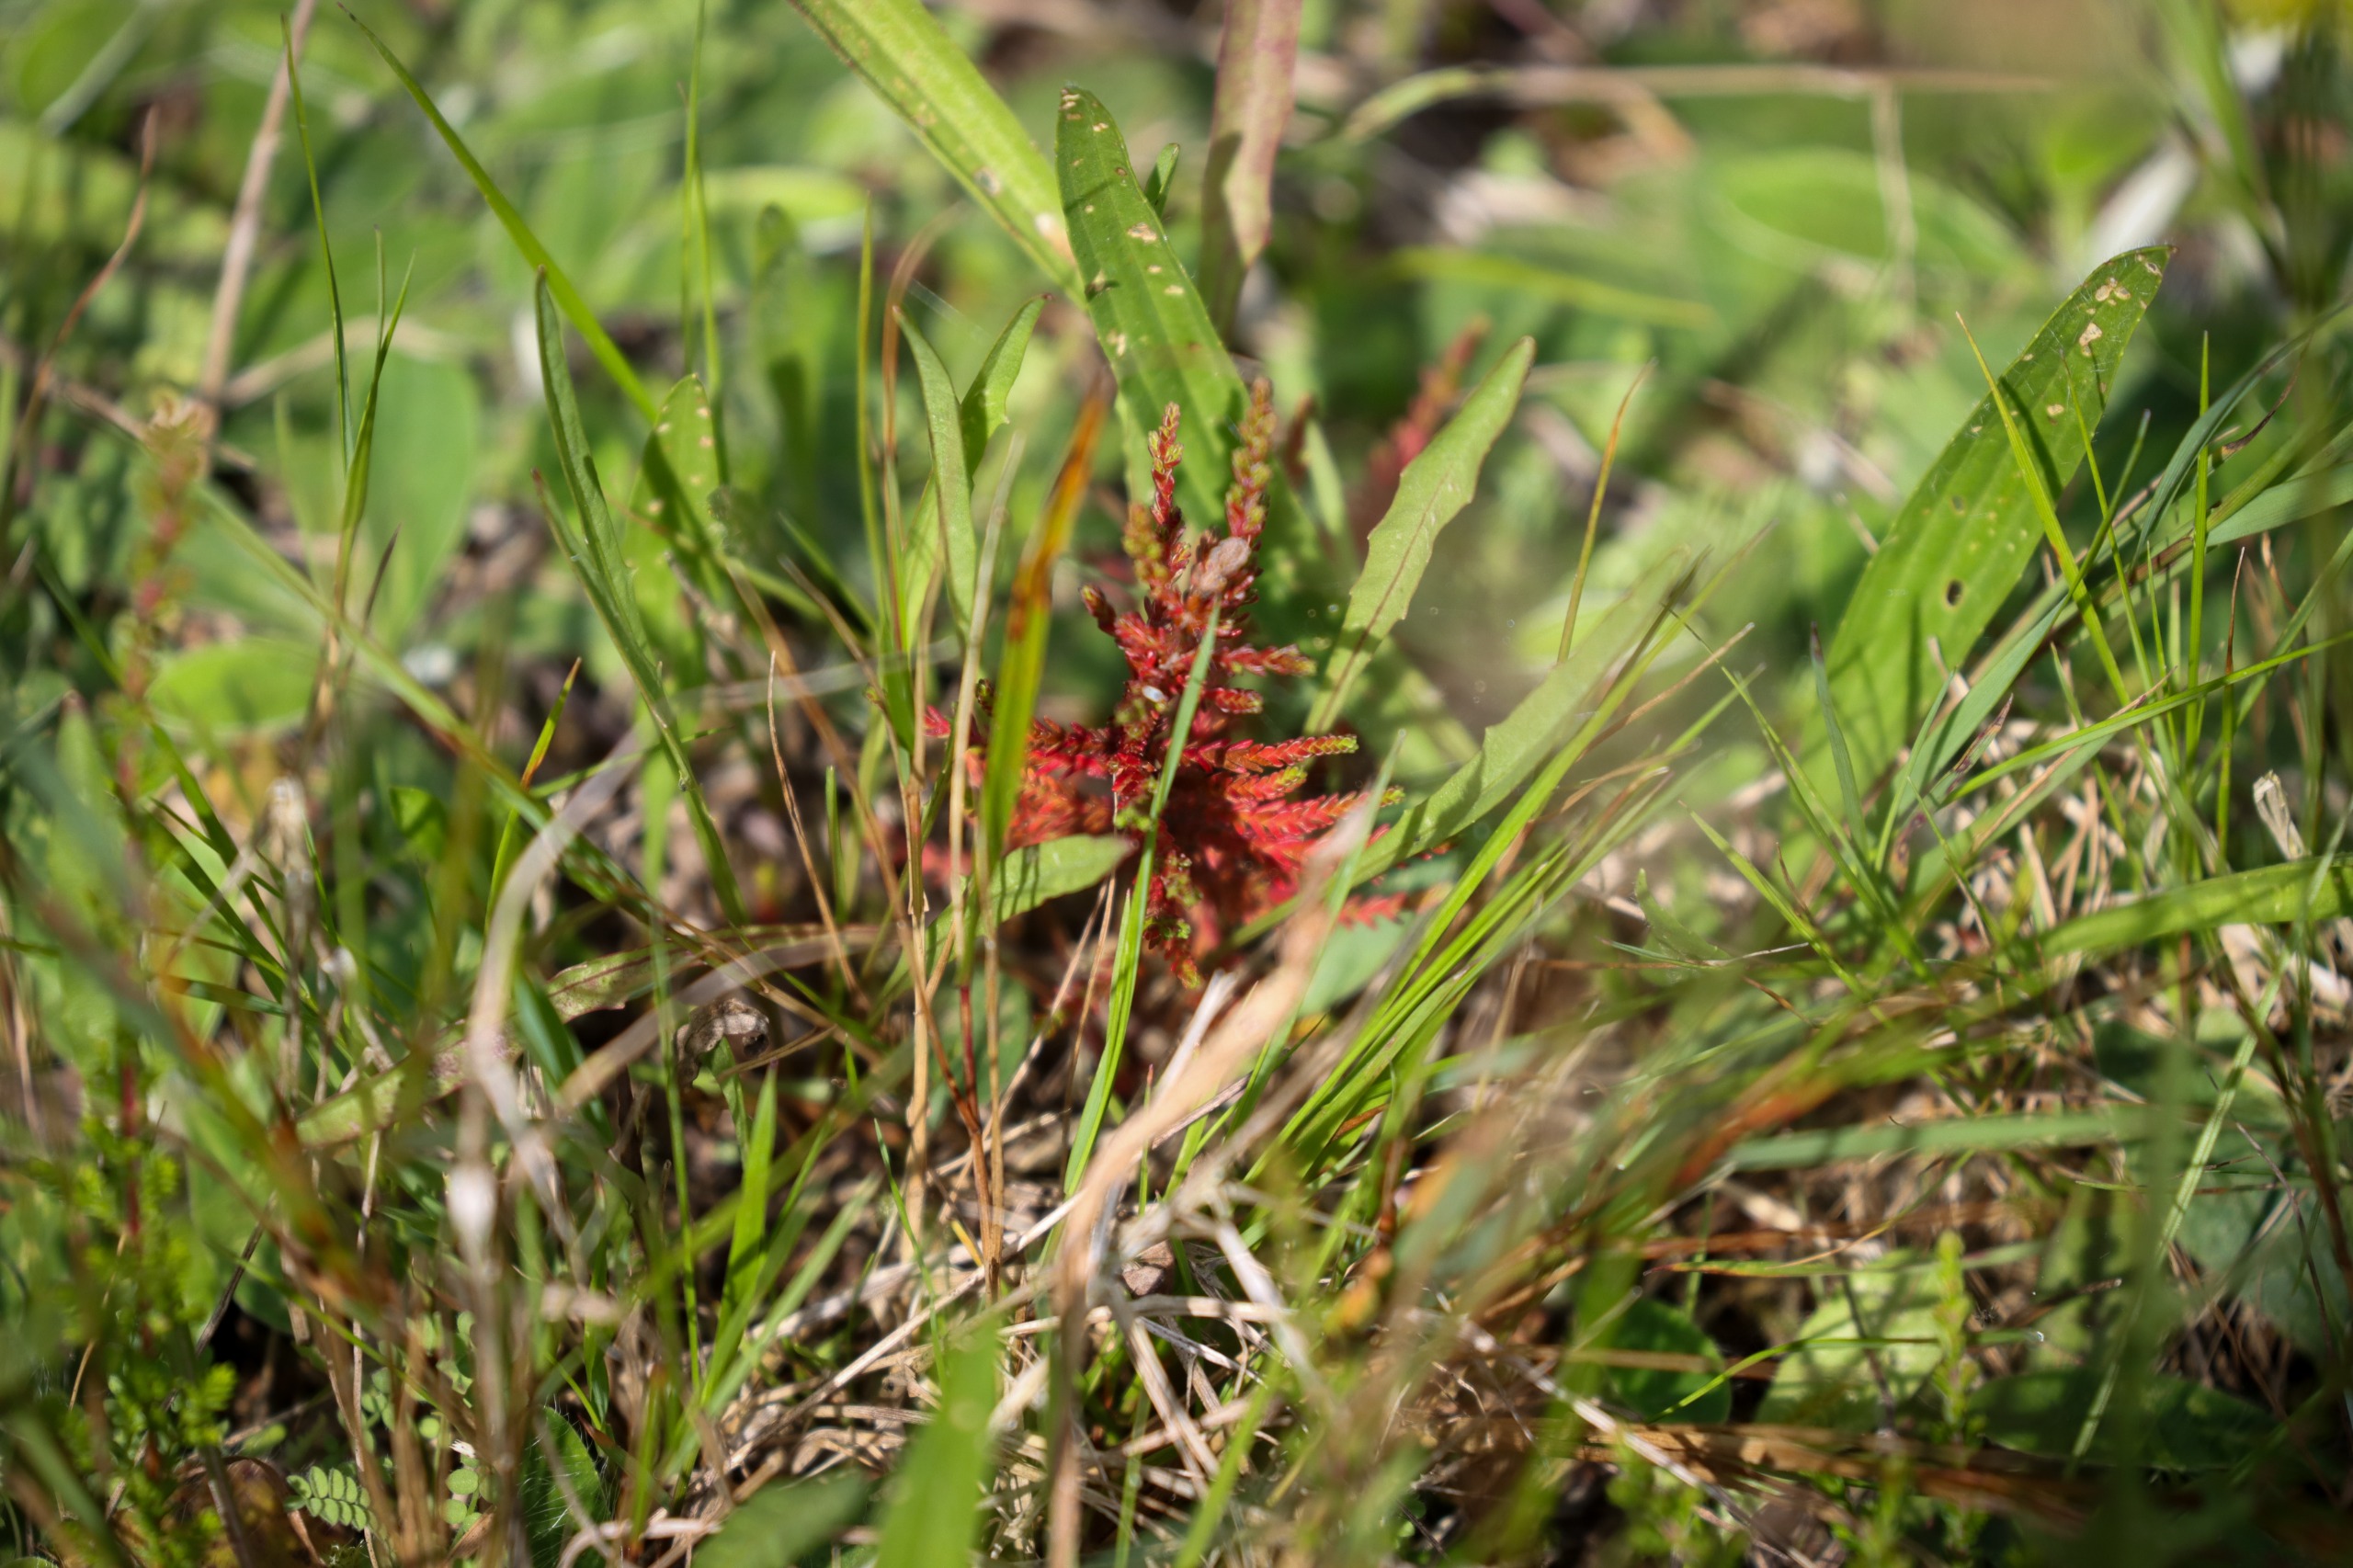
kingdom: Plantae
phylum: Tracheophyta
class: Magnoliopsida
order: Ericales
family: Ericaceae
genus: Calluna
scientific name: Calluna vulgaris
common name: Hedelyng
